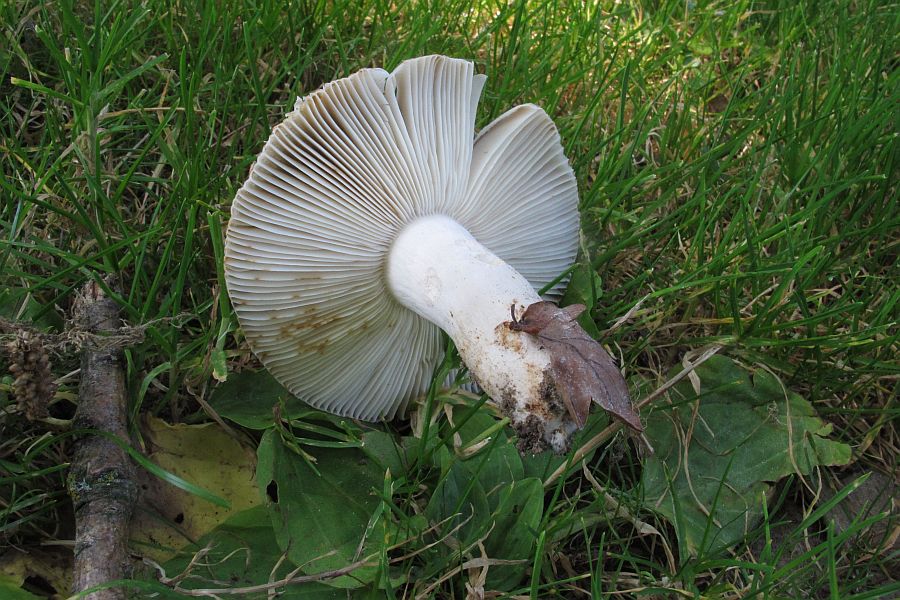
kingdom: Fungi
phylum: Basidiomycota
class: Agaricomycetes
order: Russulales
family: Russulaceae
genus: Russula
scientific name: Russula sororia
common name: brun kam-skørhat
